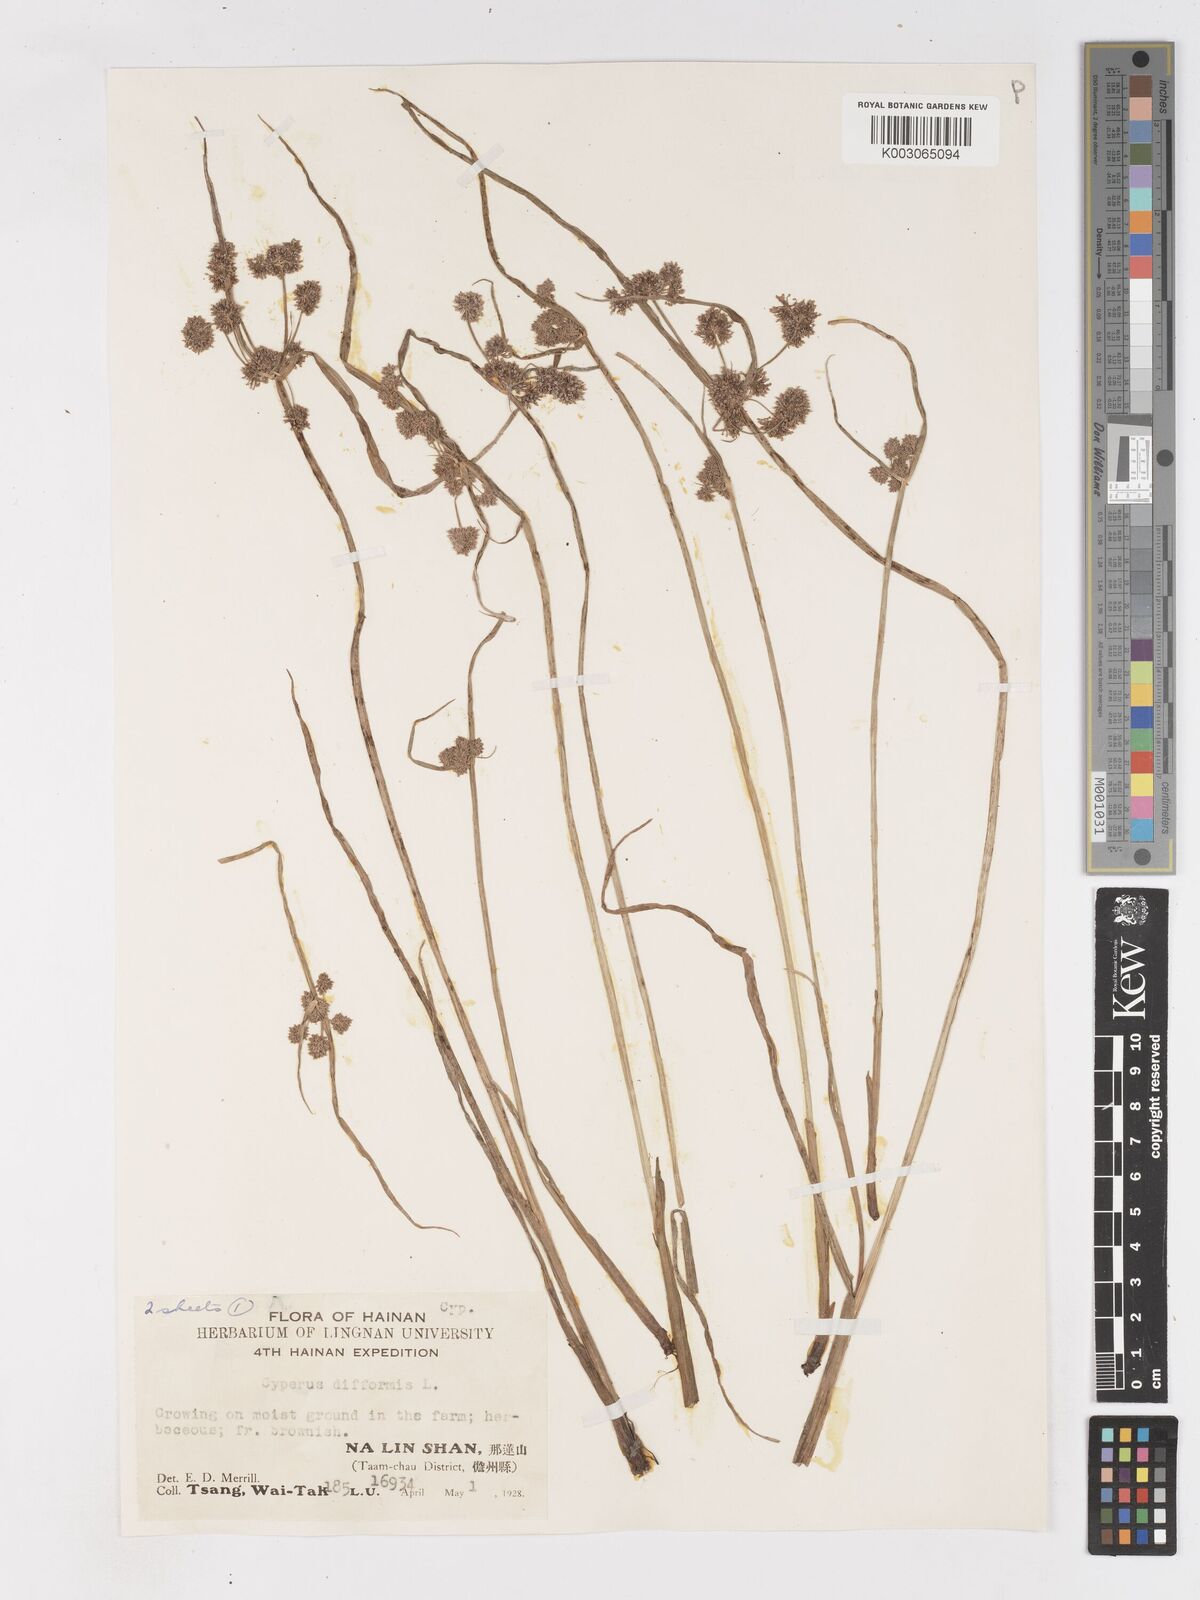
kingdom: Plantae
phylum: Tracheophyta
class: Liliopsida
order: Poales
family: Cyperaceae
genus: Cyperus
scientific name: Cyperus difformis
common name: Variable flatsedge
